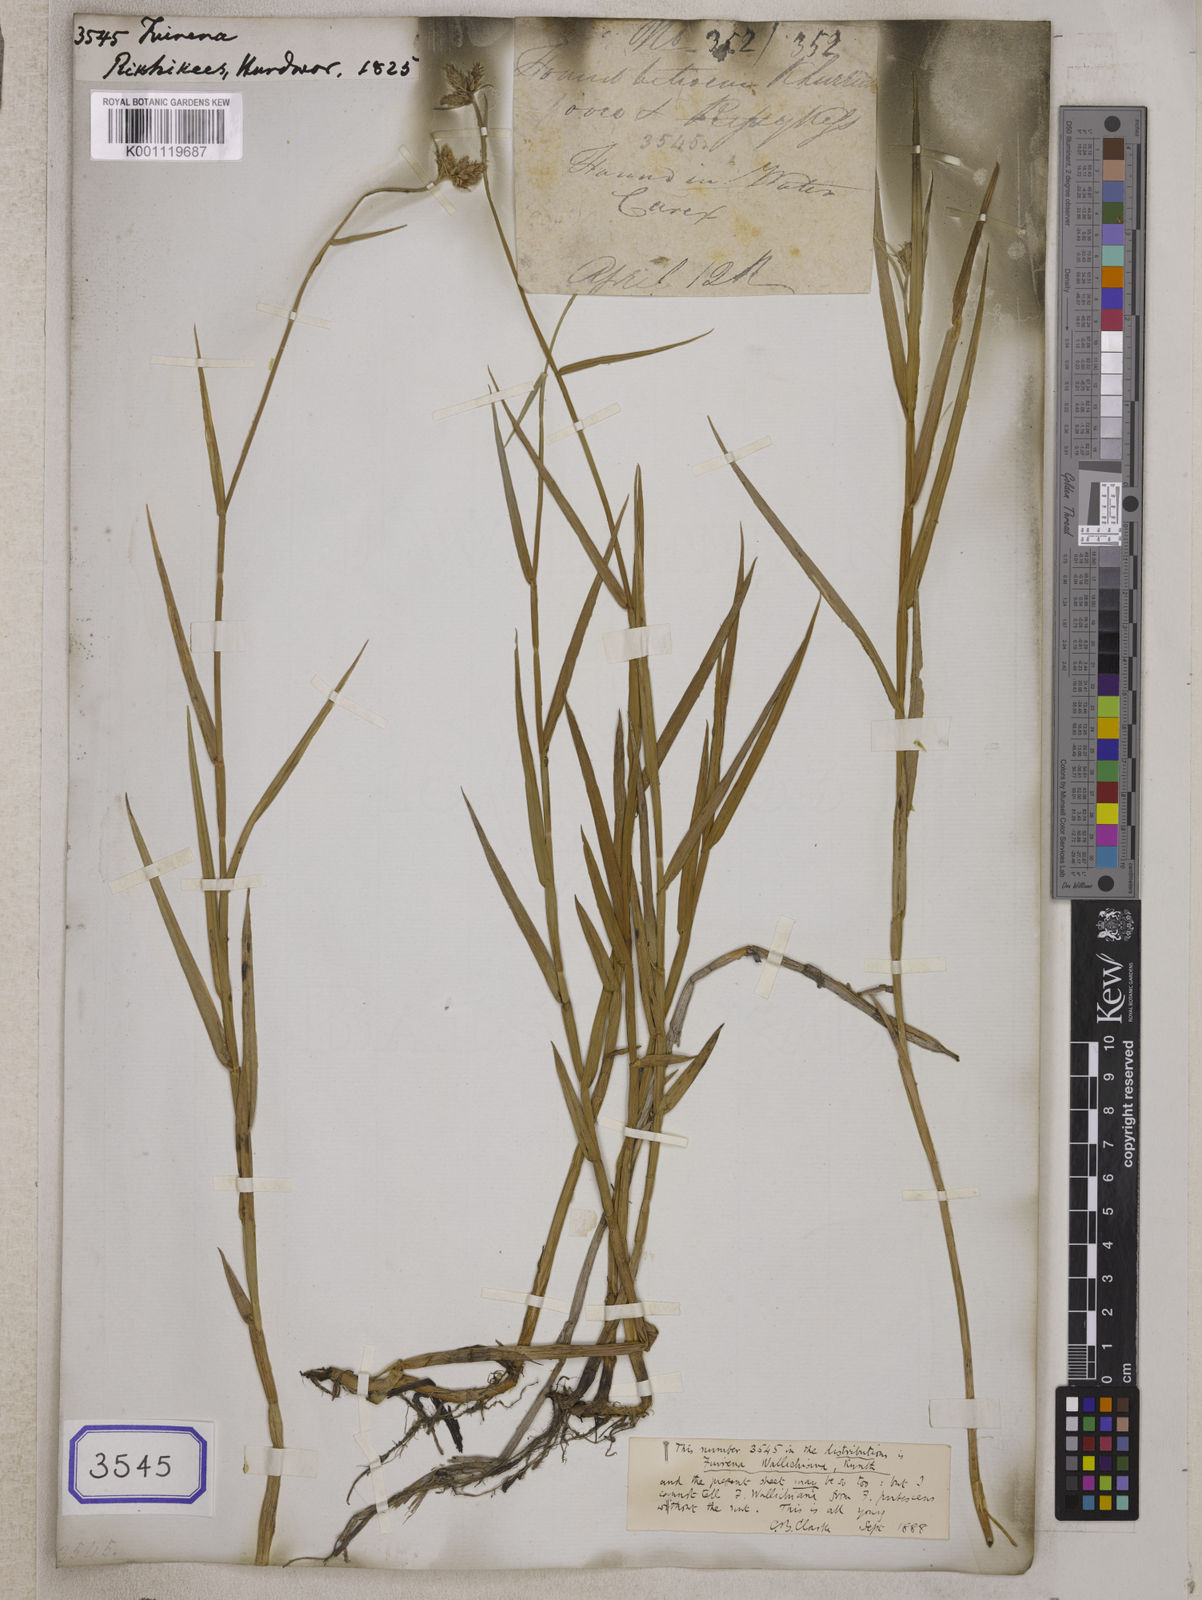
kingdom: Plantae
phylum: Tracheophyta
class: Liliopsida
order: Poales
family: Cyperaceae
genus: Fuirena
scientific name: Fuirena
